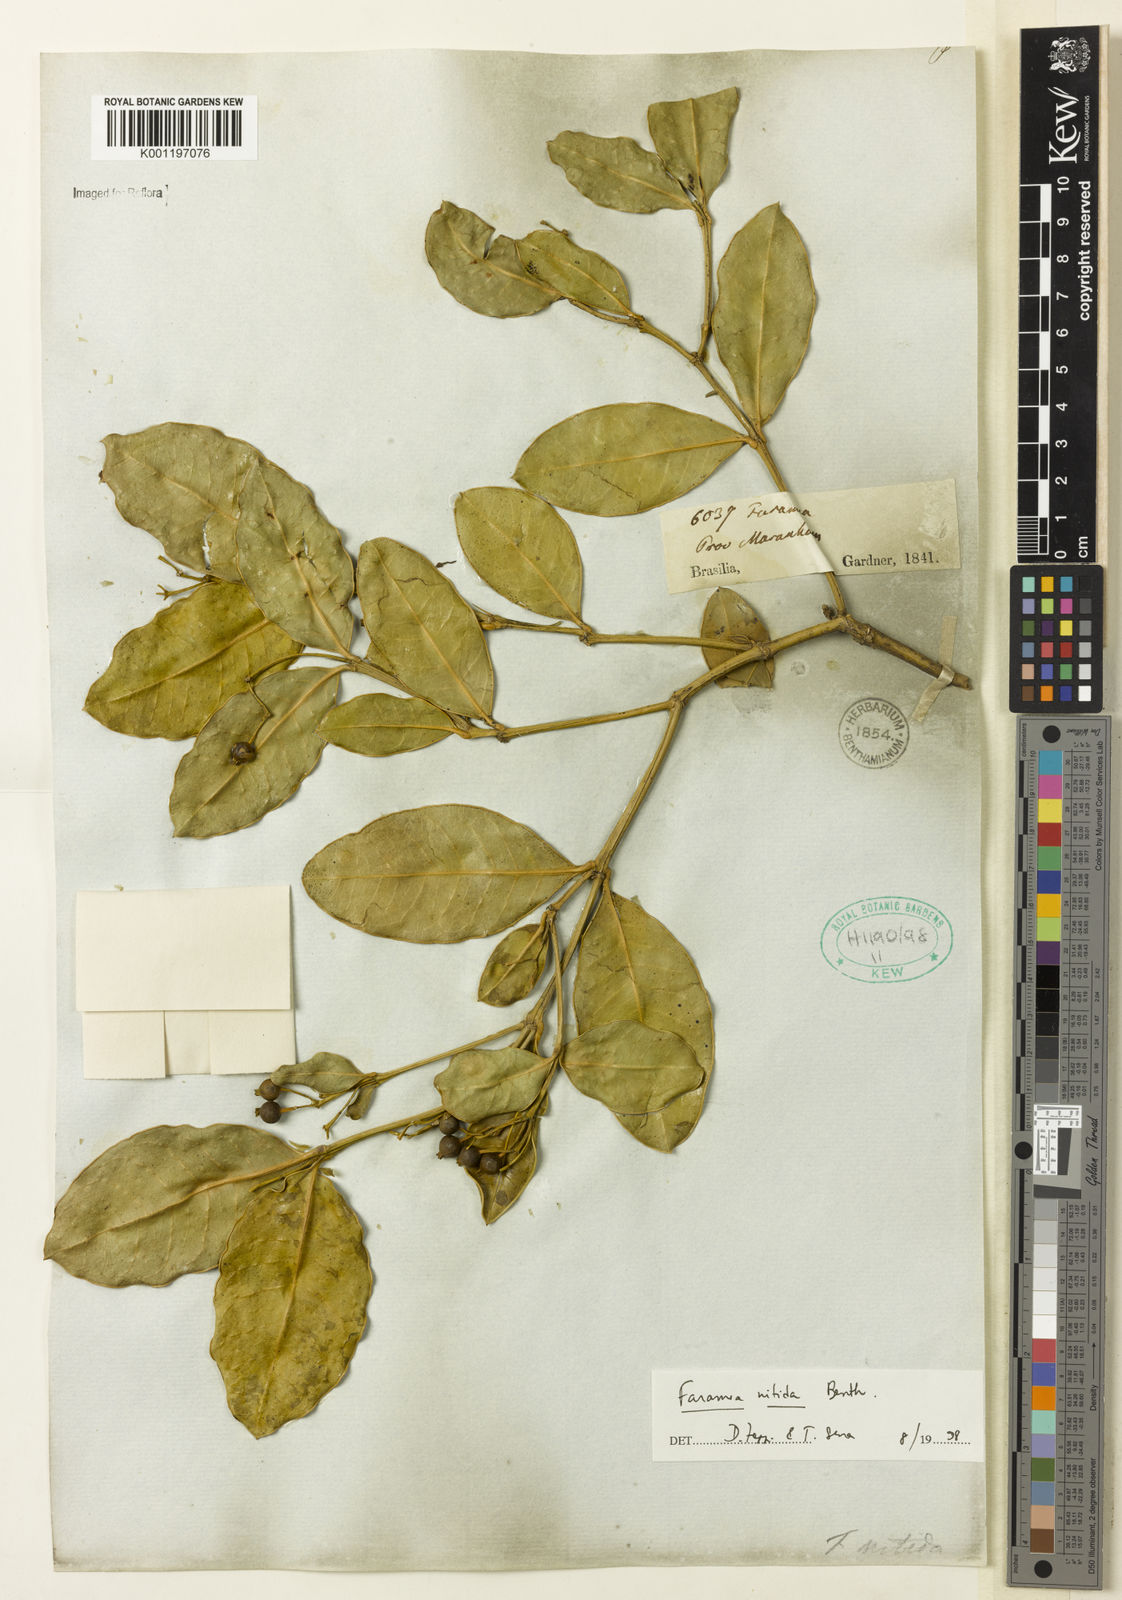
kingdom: Plantae
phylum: Tracheophyta
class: Magnoliopsida
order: Gentianales
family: Rubiaceae
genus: Faramea
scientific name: Faramea nitida
